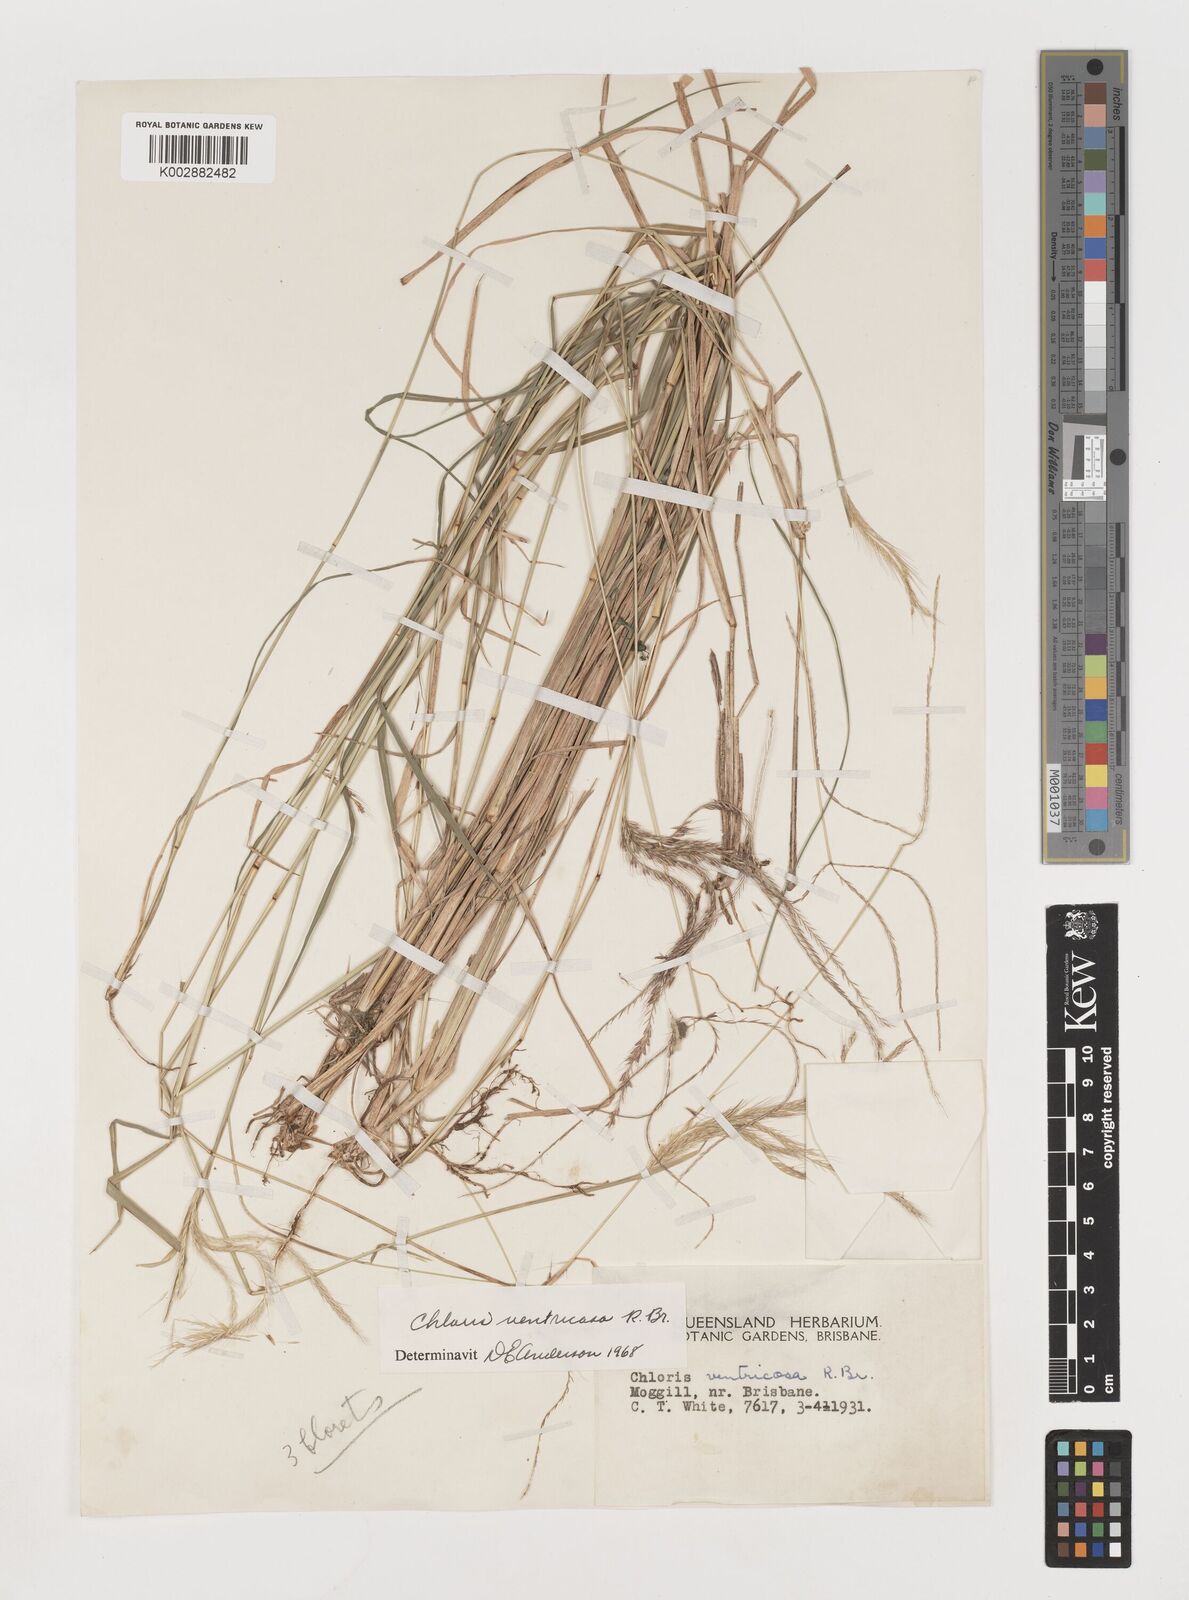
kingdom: Plantae
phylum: Tracheophyta
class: Liliopsida
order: Poales
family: Poaceae
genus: Chloris
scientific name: Chloris ventricosa
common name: Australian windmill grass
